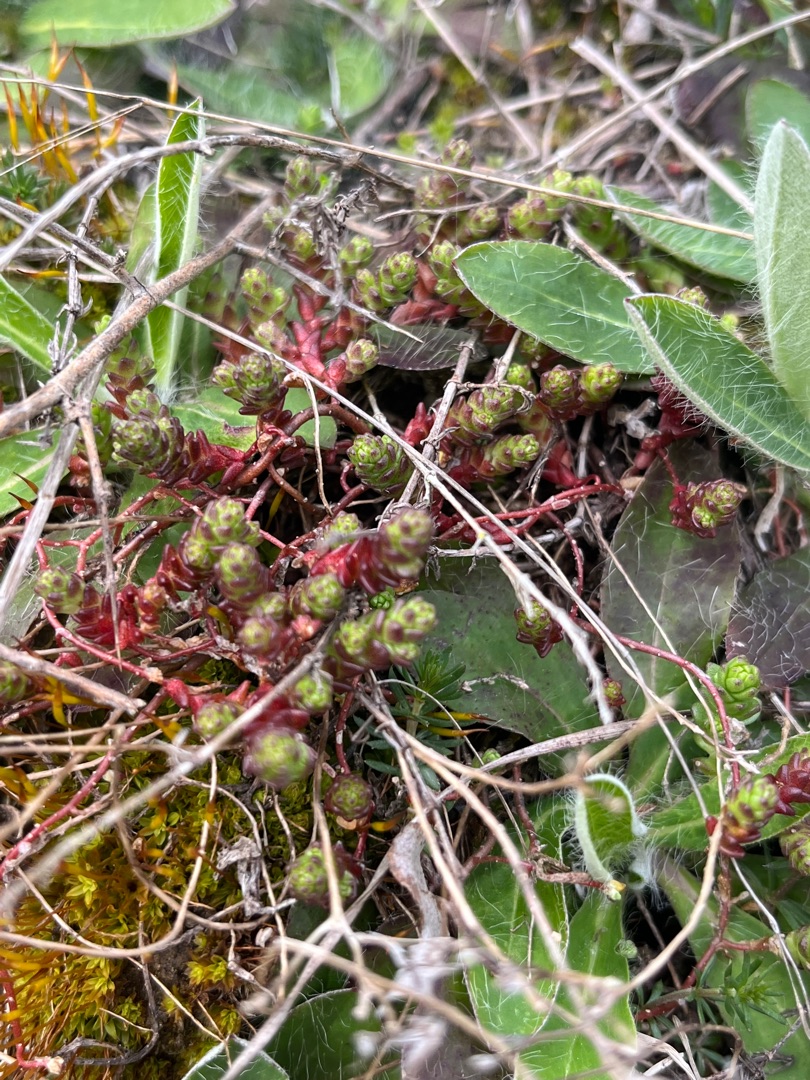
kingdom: Plantae
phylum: Tracheophyta
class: Magnoliopsida
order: Saxifragales
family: Crassulaceae
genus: Sedum
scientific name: Sedum acre
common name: Bidende stenurt
